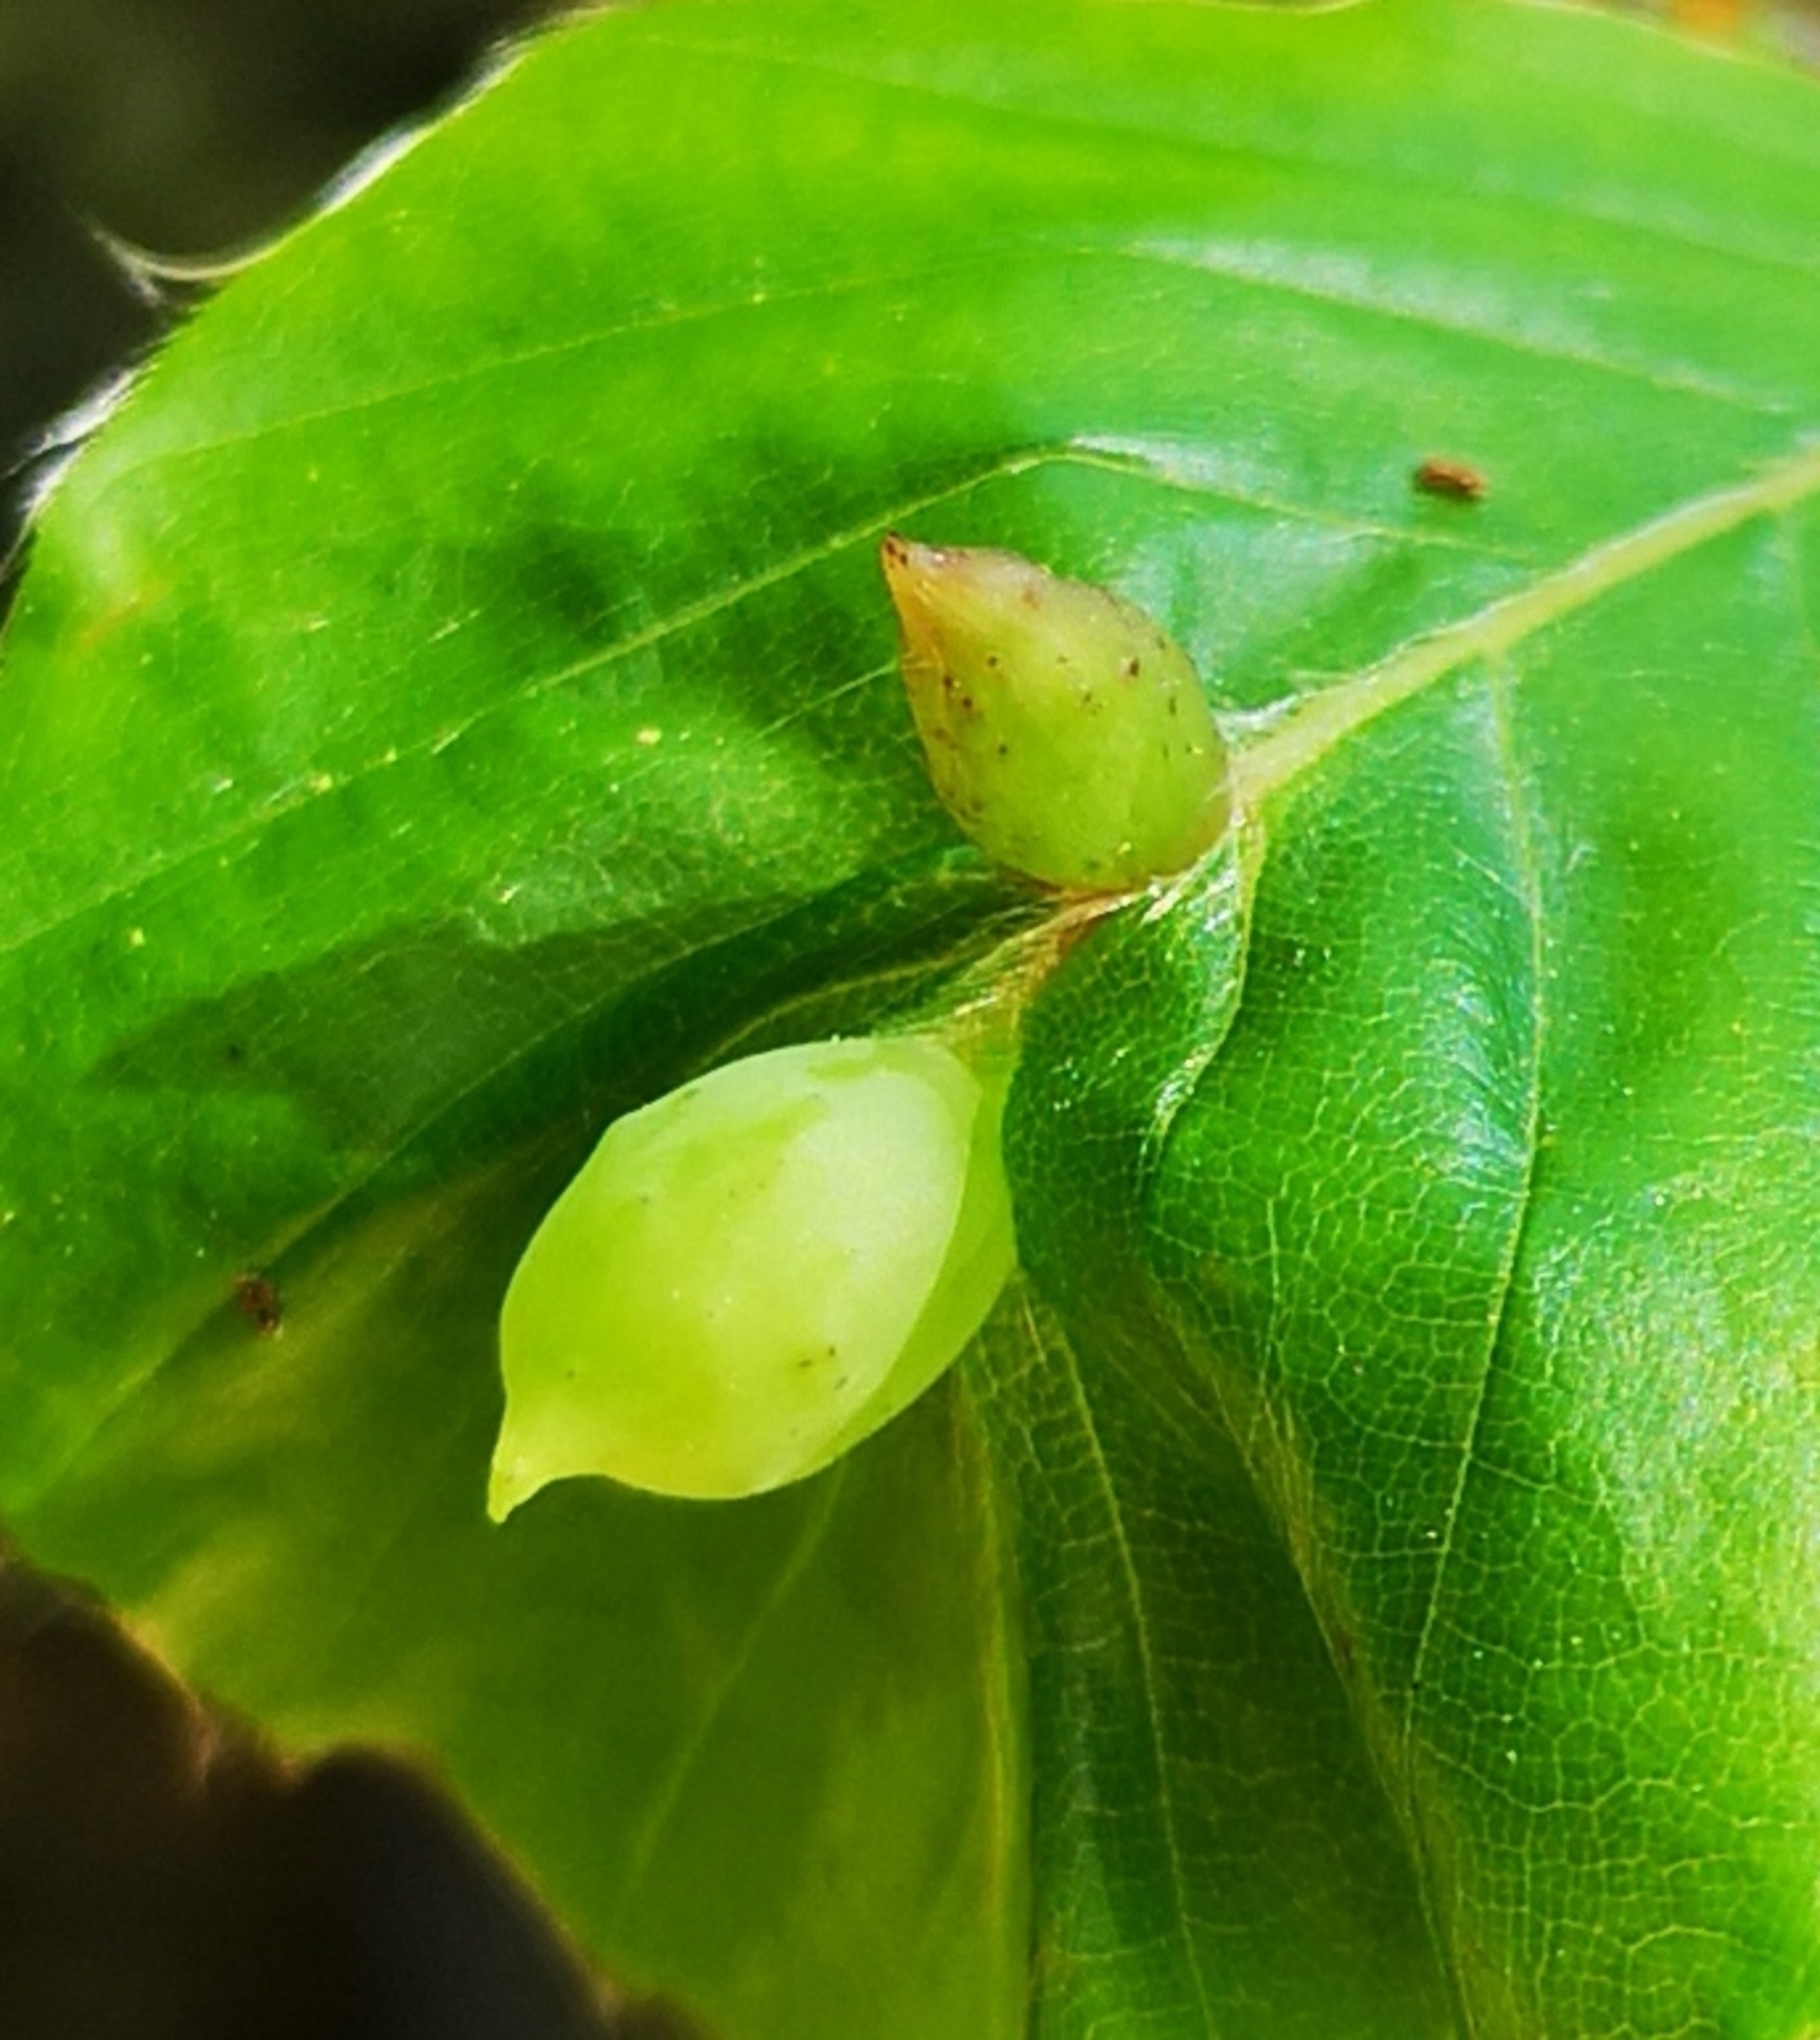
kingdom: Animalia
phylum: Arthropoda
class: Insecta
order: Diptera
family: Cecidomyiidae
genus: Mikiola
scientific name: Mikiola fagi
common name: Bøgegalmyg
